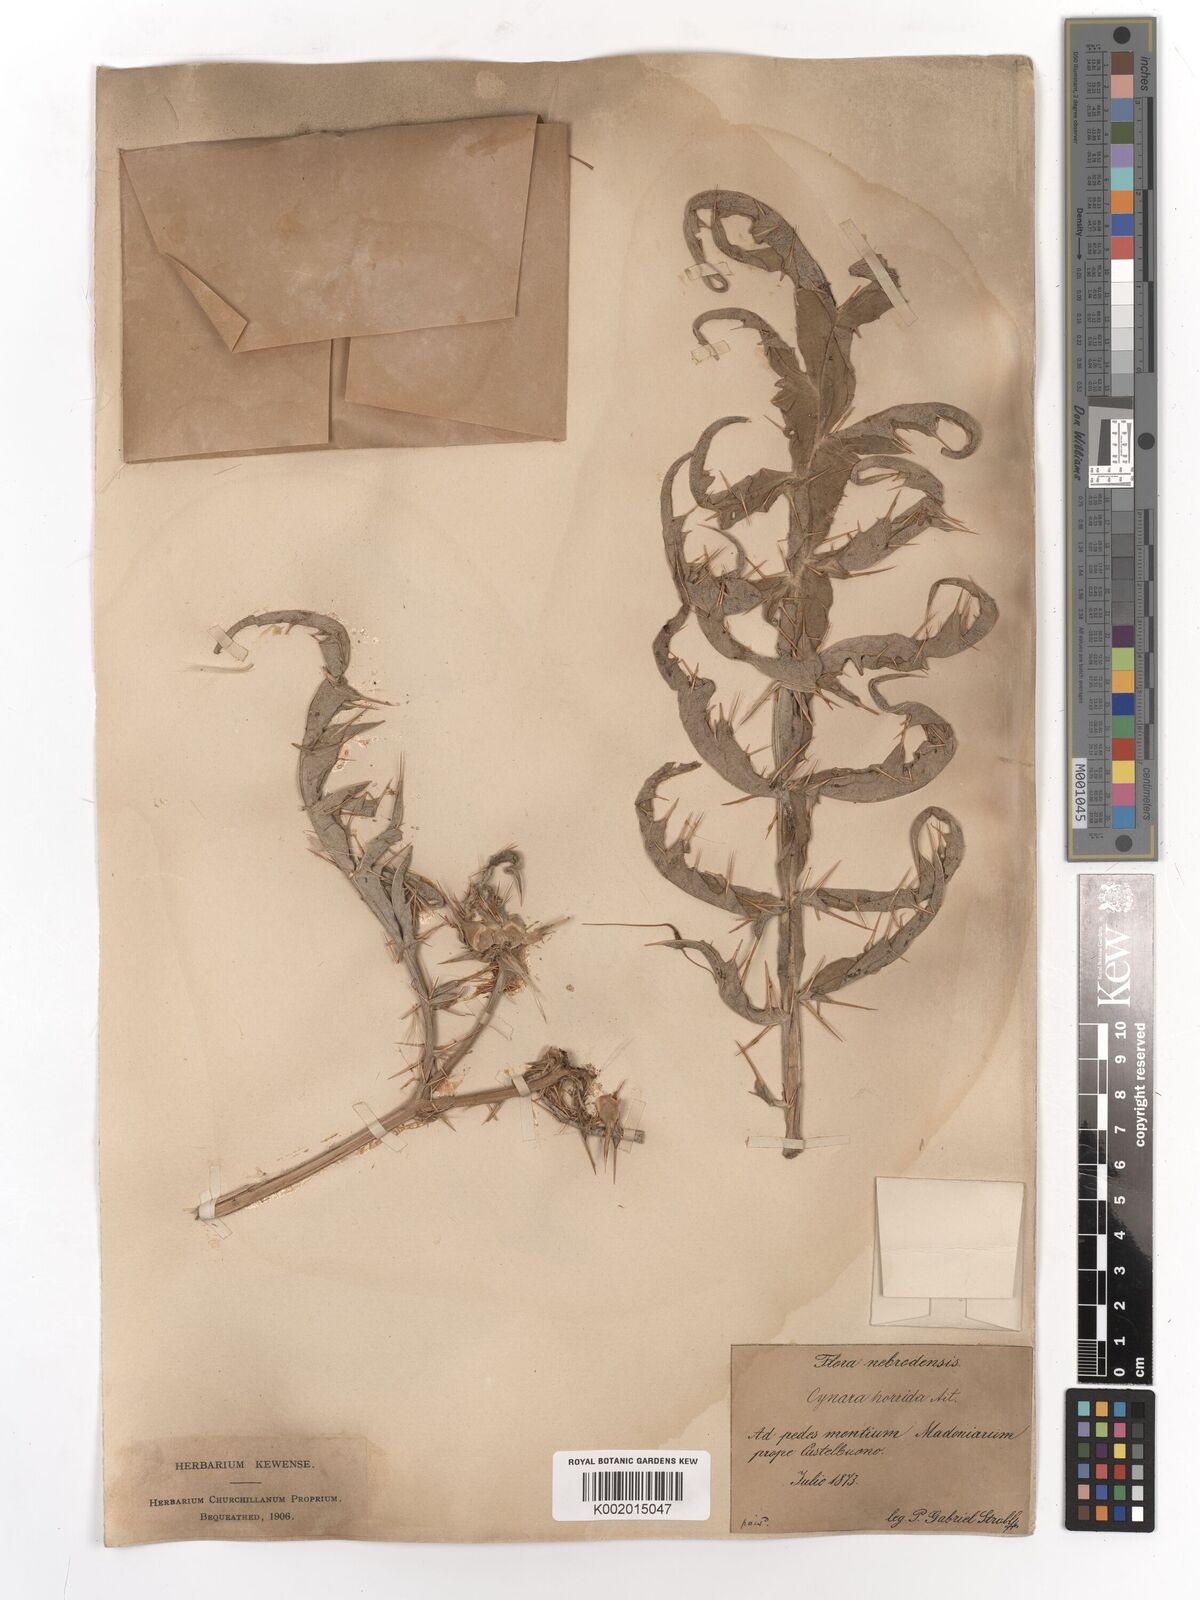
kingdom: Plantae
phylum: Tracheophyta
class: Magnoliopsida
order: Asterales
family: Asteraceae
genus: Cynara
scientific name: Cynara cardunculus
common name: Globe artichoke
